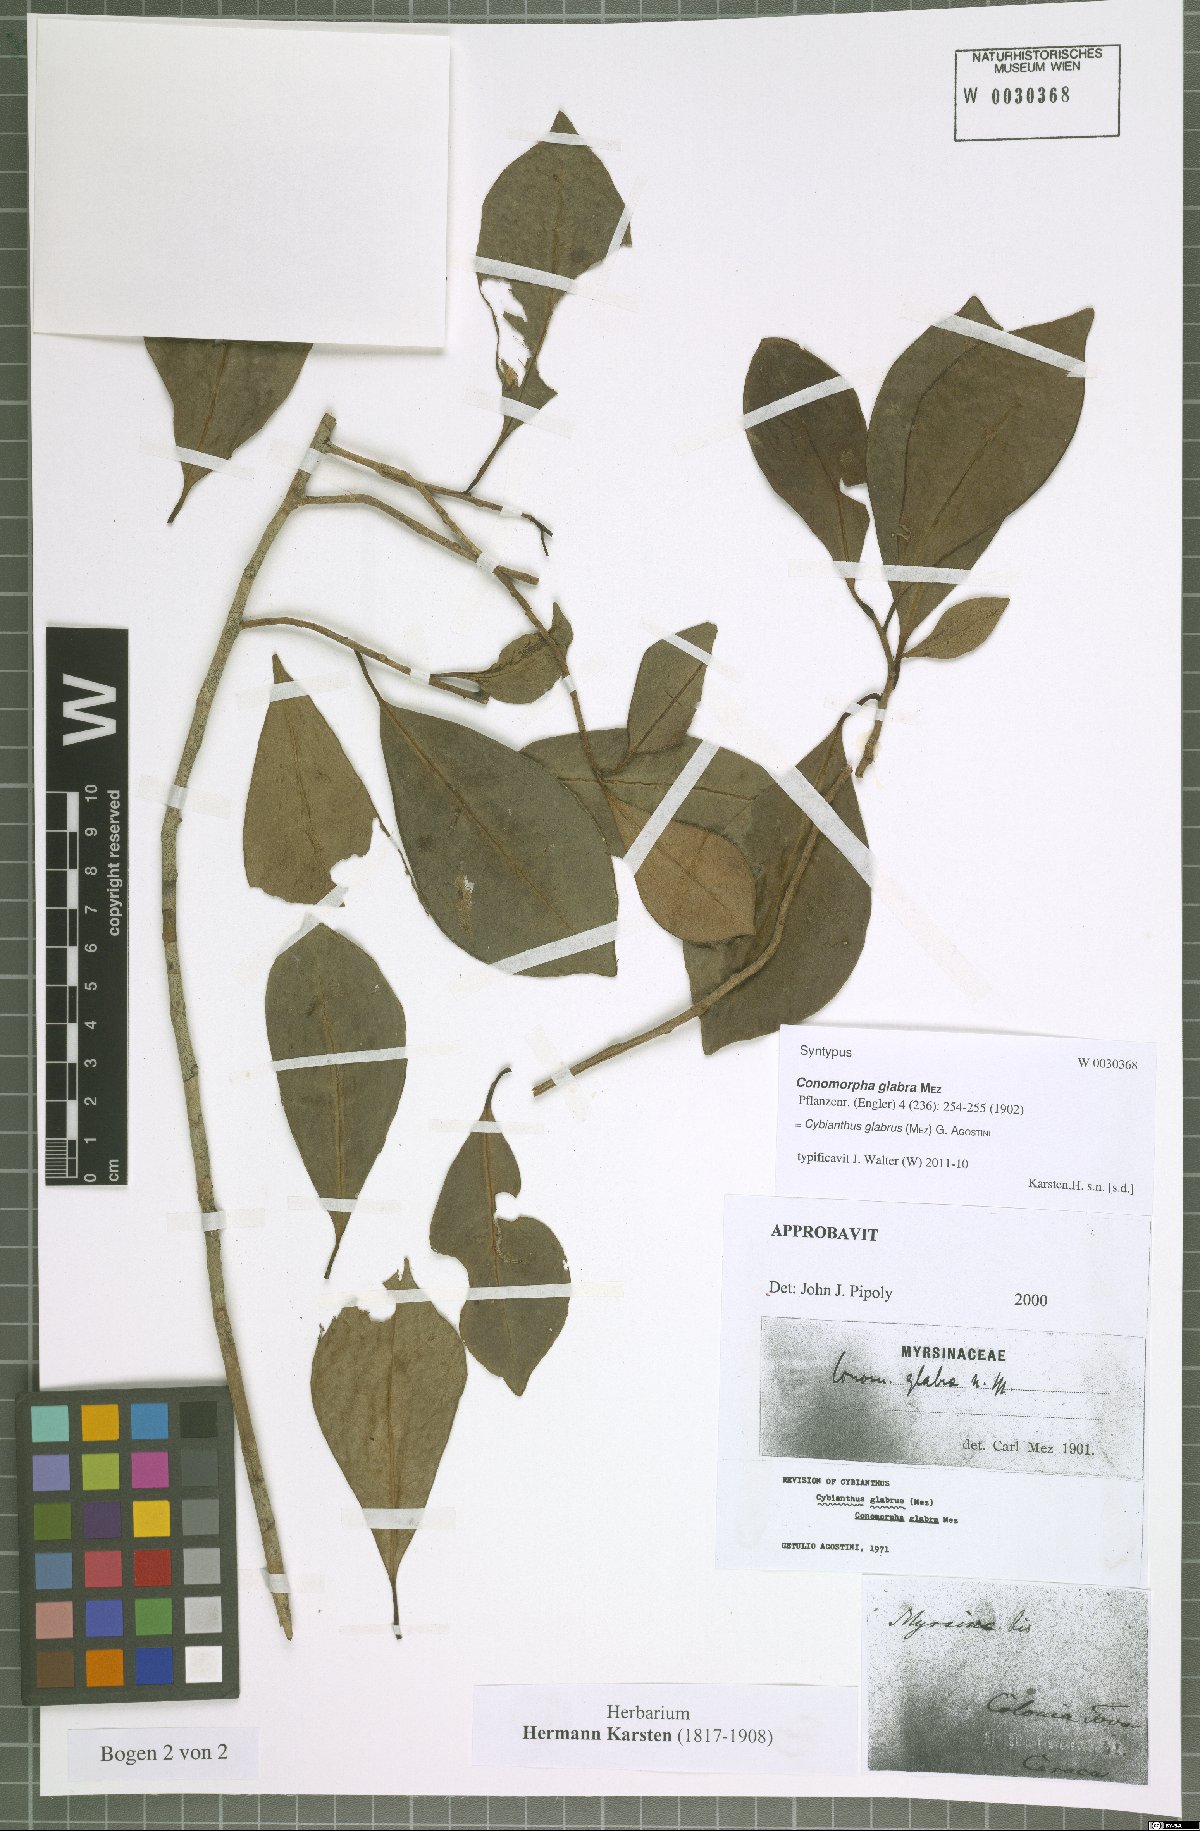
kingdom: Plantae
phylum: Tracheophyta
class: Magnoliopsida
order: Ericales
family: Primulaceae
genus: Cybianthus
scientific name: Cybianthus glabrus
